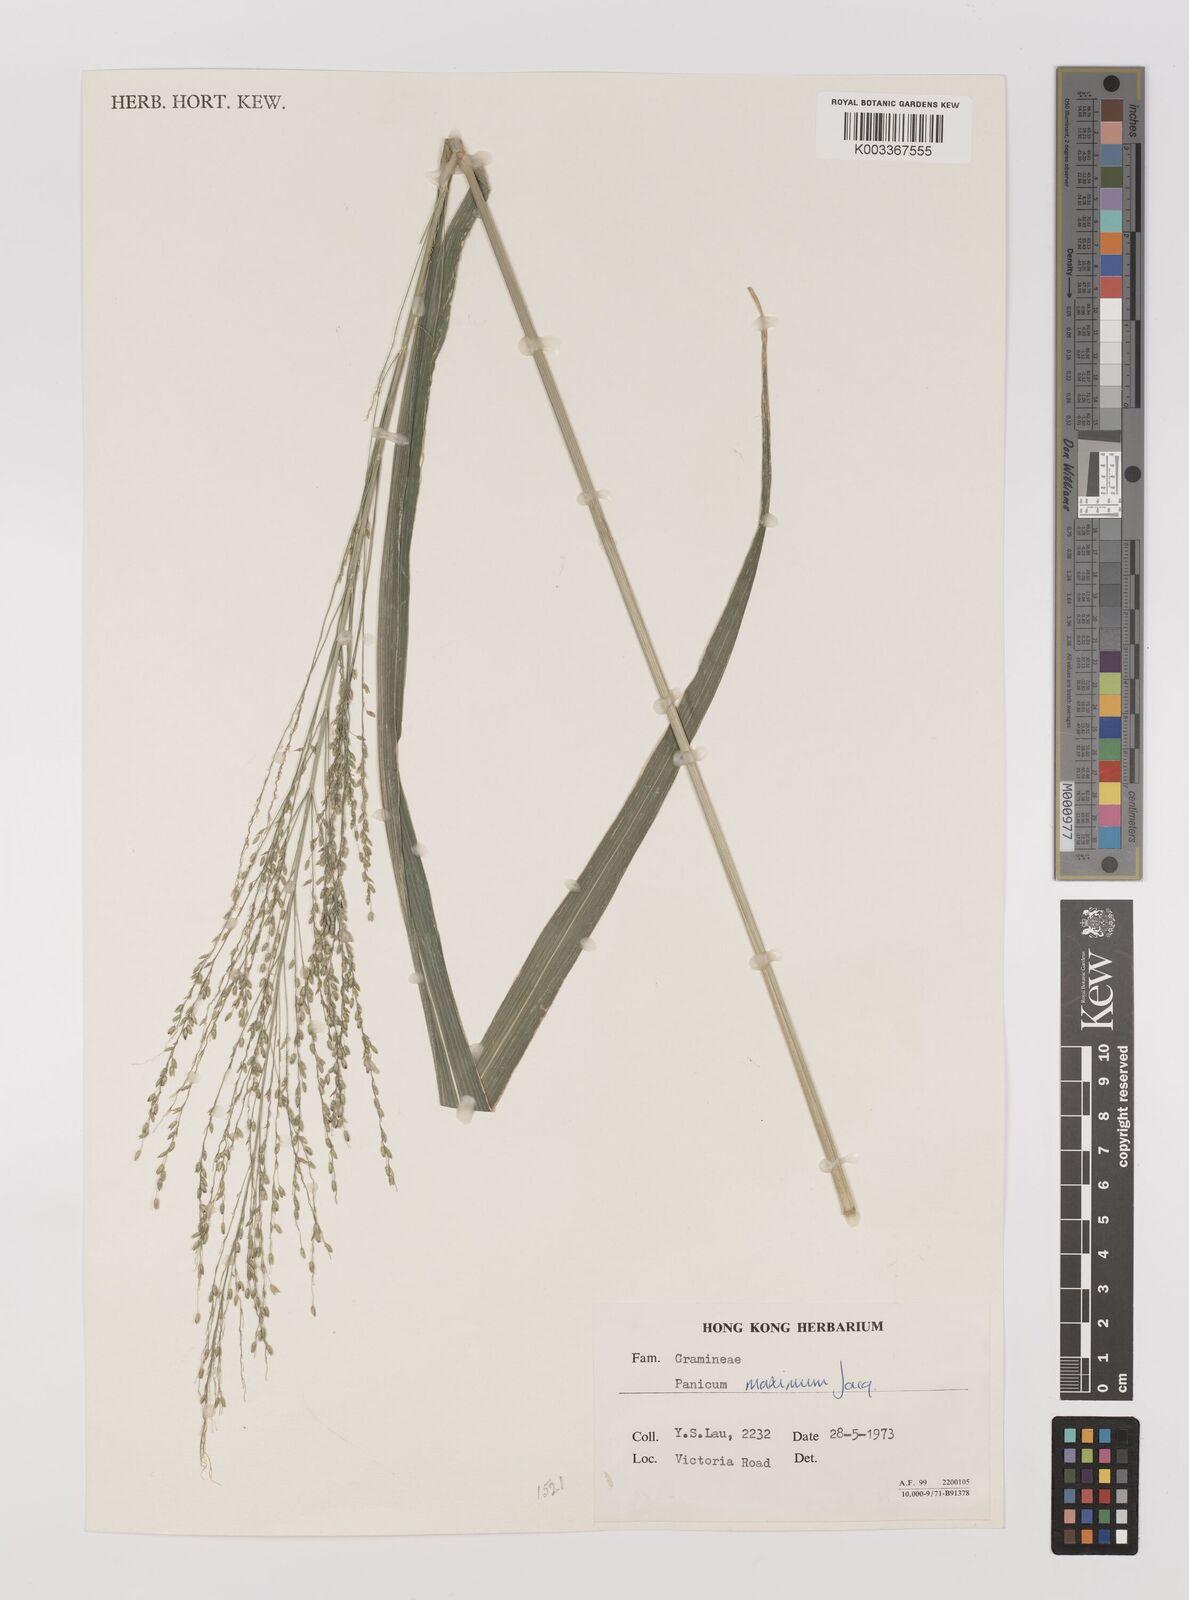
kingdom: Plantae
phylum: Tracheophyta
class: Liliopsida
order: Poales
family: Poaceae
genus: Megathyrsus
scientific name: Megathyrsus maximus
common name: Guineagrass
